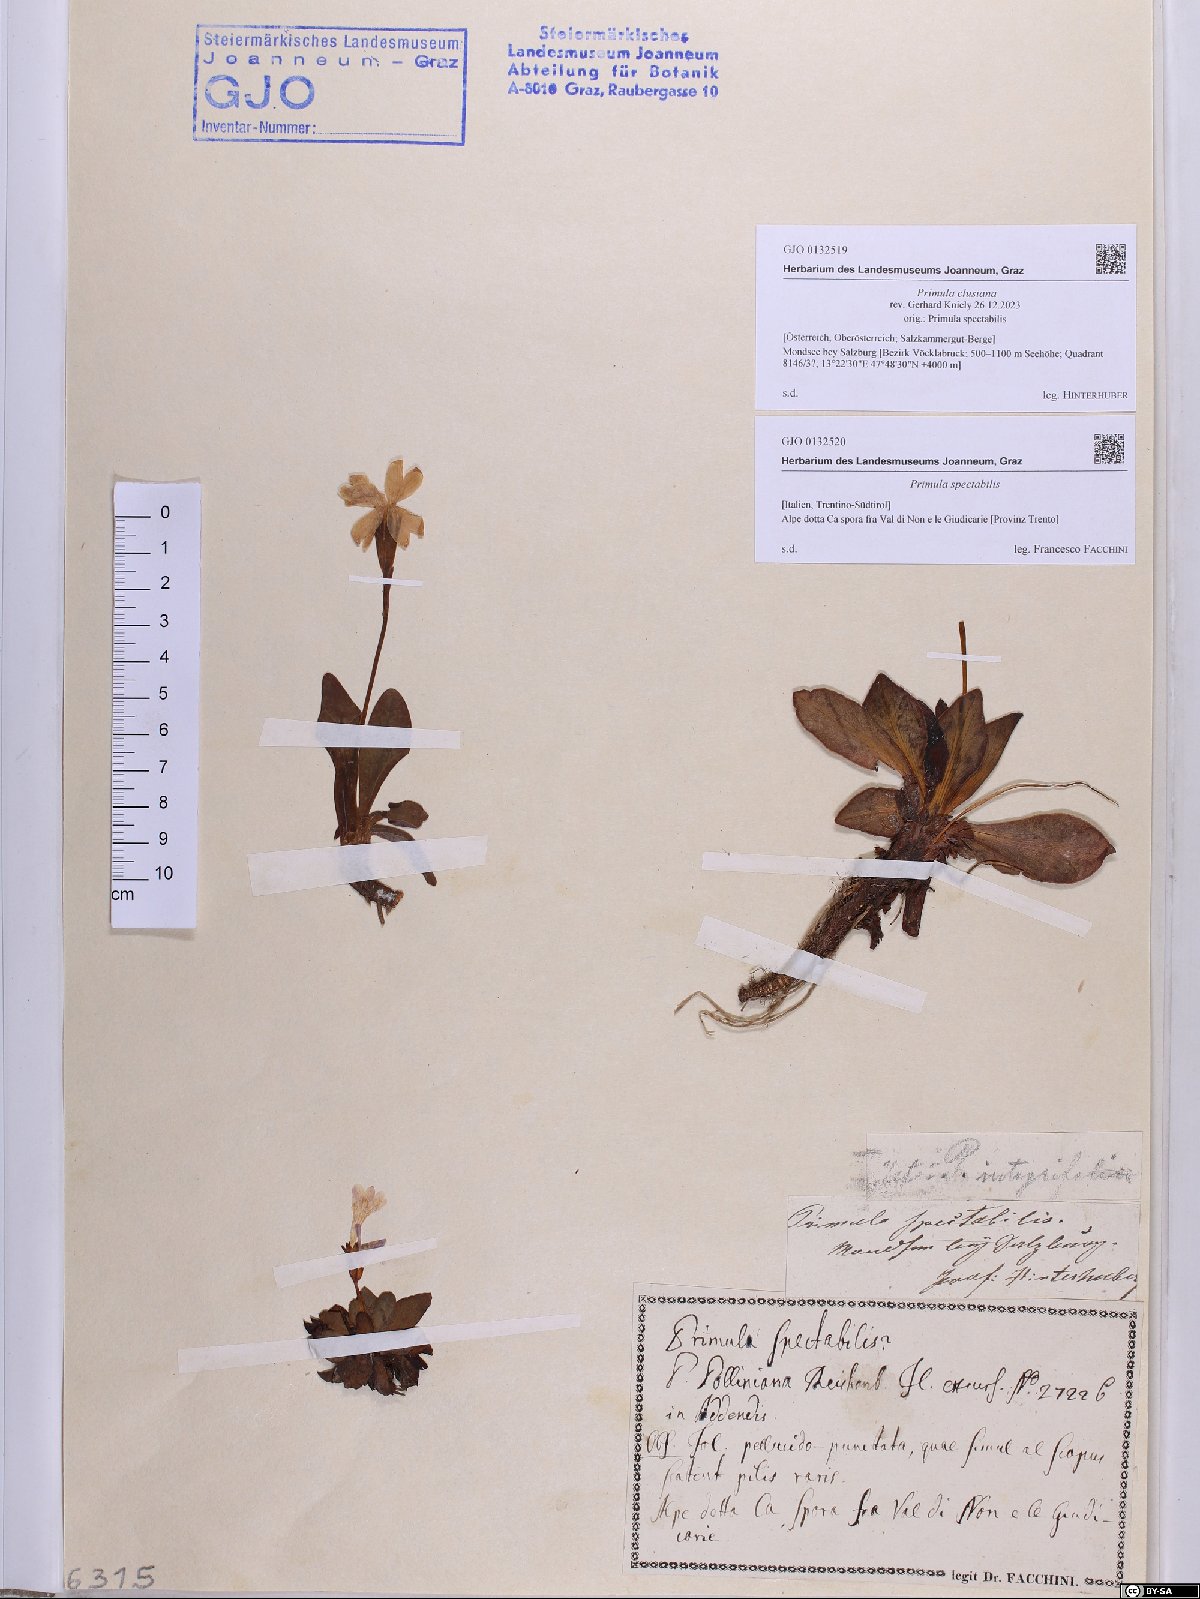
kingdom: Plantae
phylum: Tracheophyta
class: Magnoliopsida
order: Ericales
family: Primulaceae
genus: Primula
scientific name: Primula spectabilis
